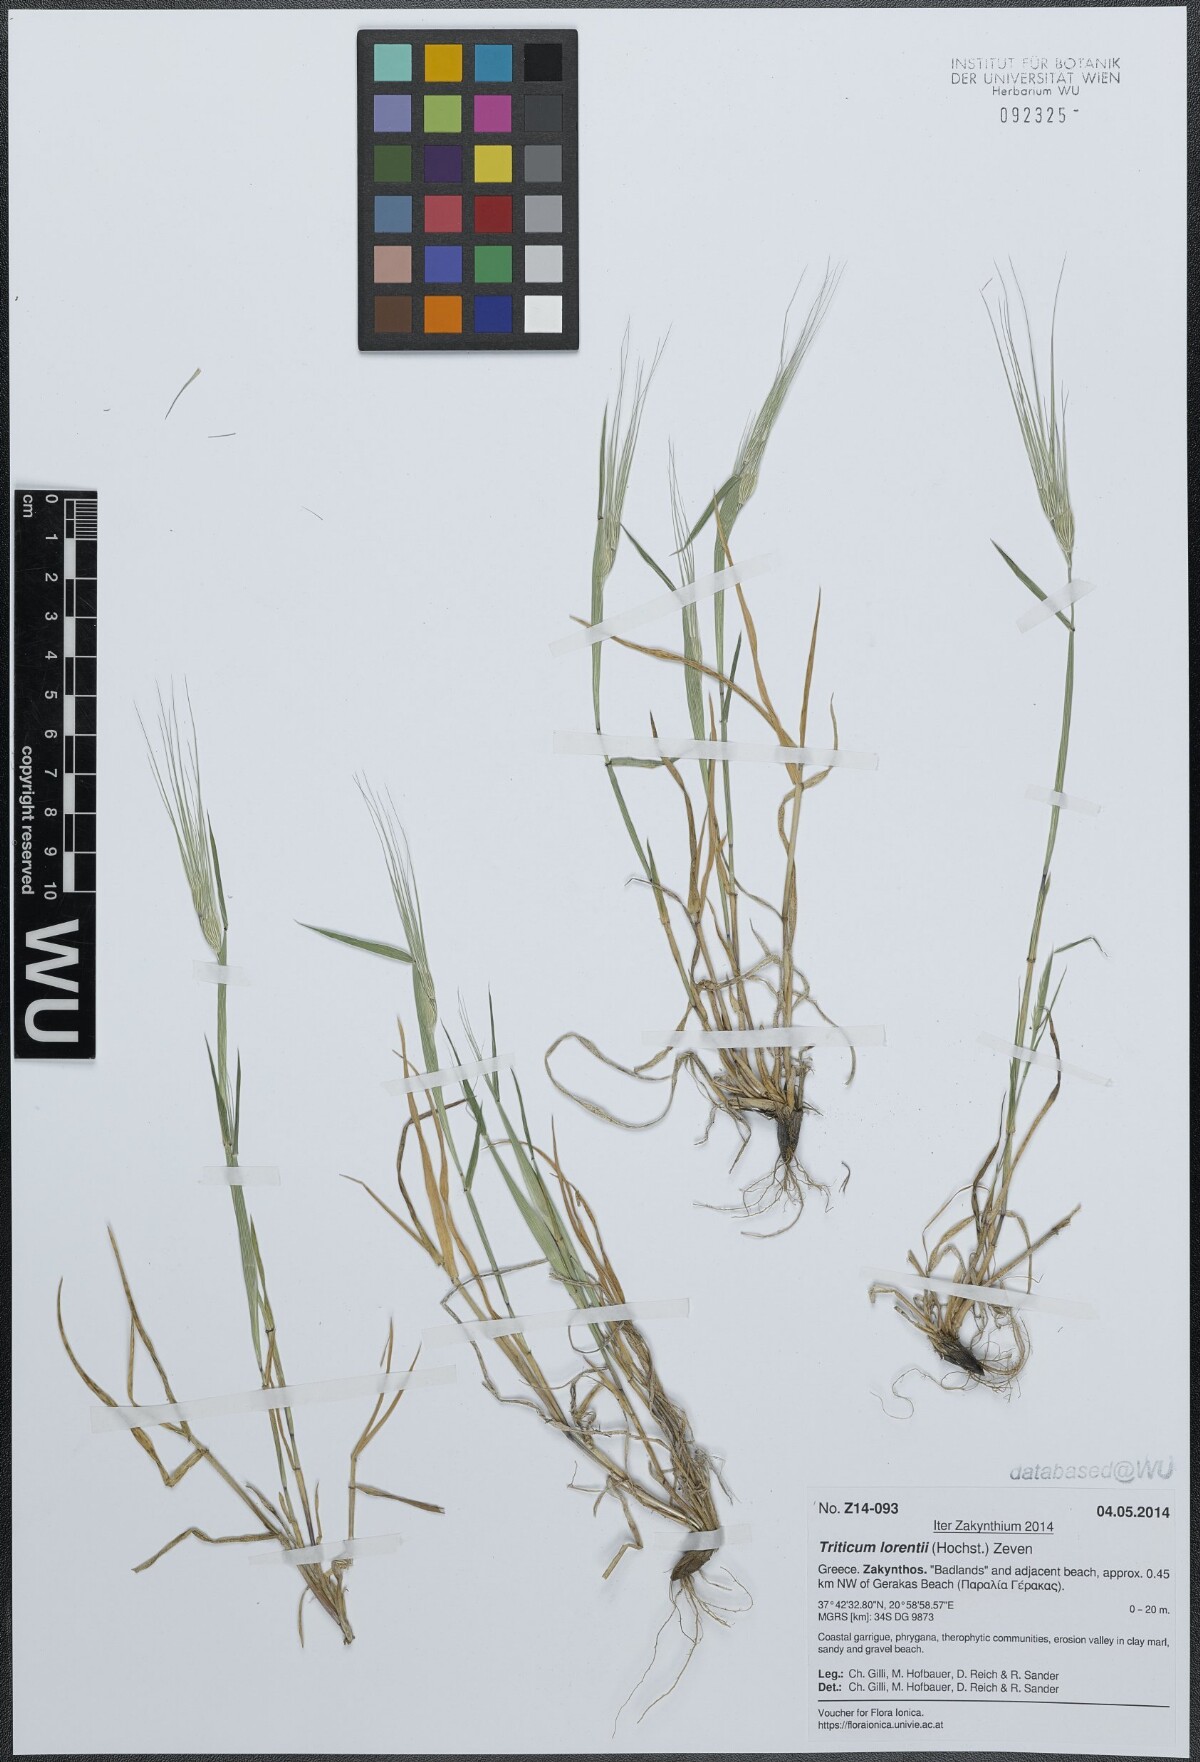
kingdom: Plantae
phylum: Tracheophyta
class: Liliopsida
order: Poales
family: Poaceae
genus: Aegilops
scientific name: Aegilops biuncialis
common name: Mediterranean aegilops
